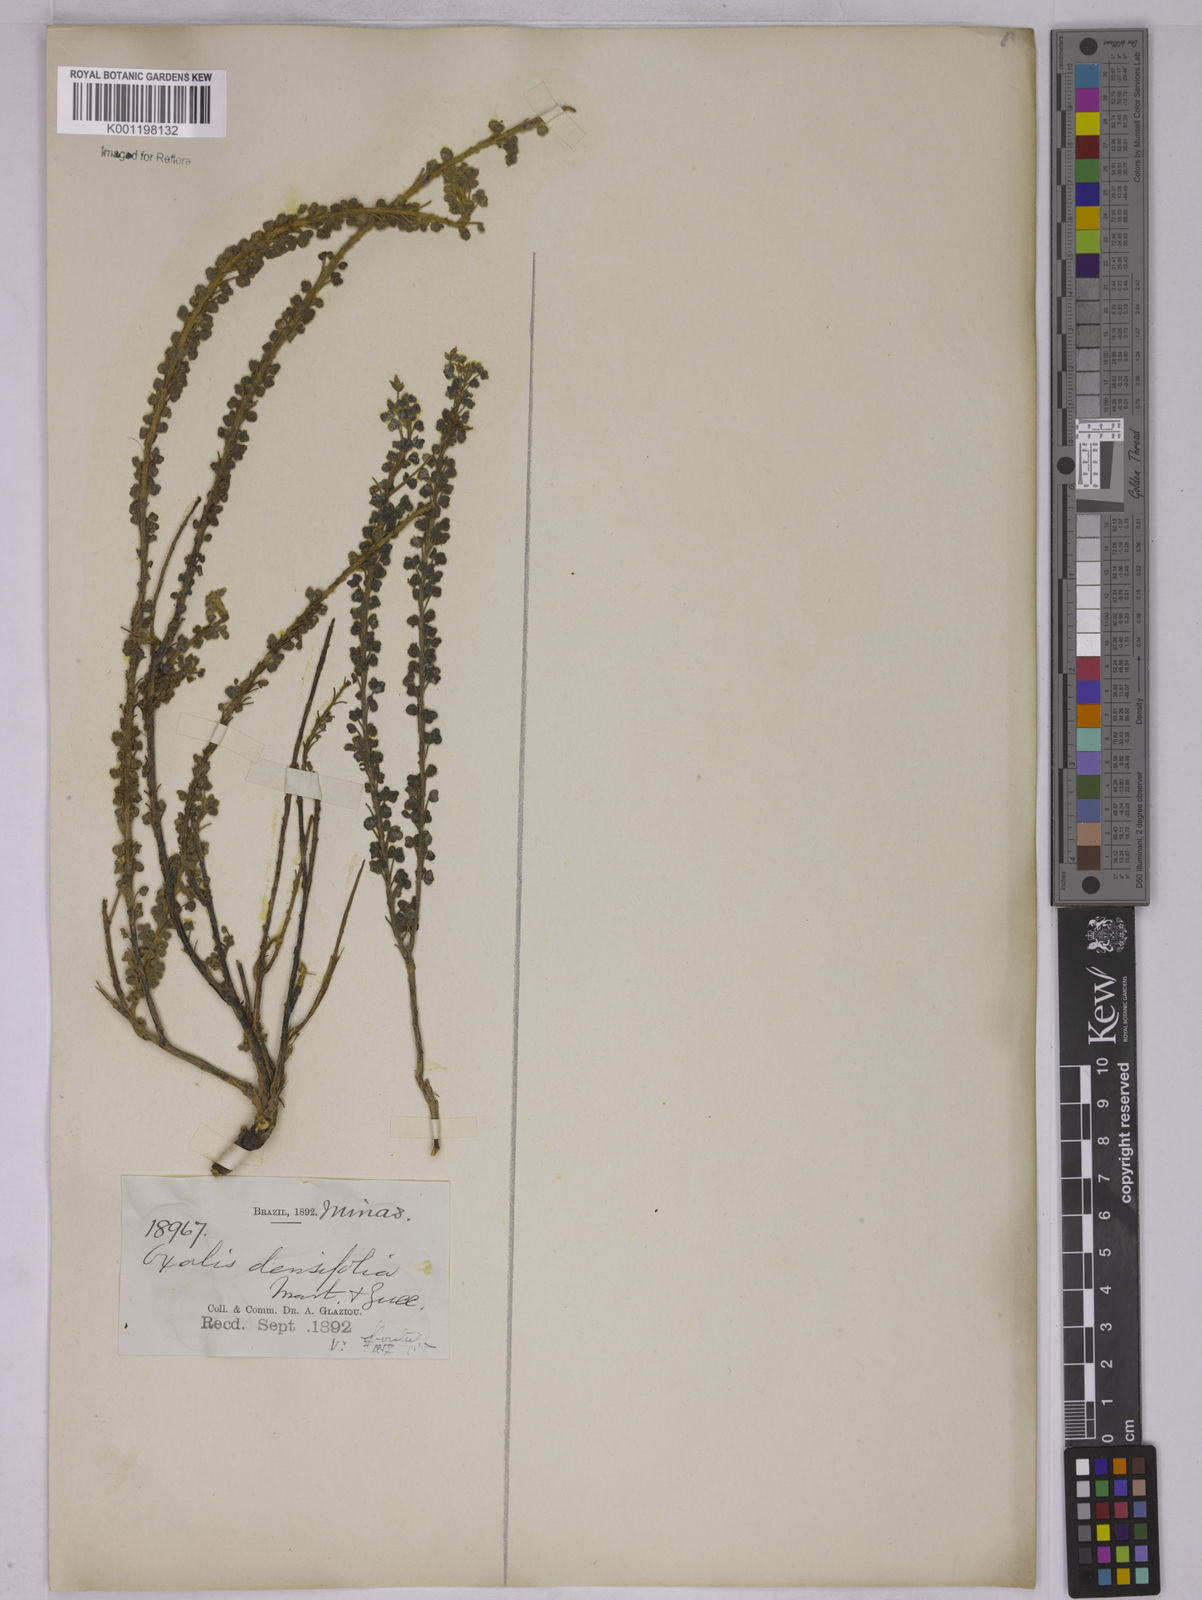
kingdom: Plantae
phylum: Tracheophyta
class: Magnoliopsida
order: Oxalidales
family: Oxalidaceae
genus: Oxalis
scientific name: Oxalis densifolia
